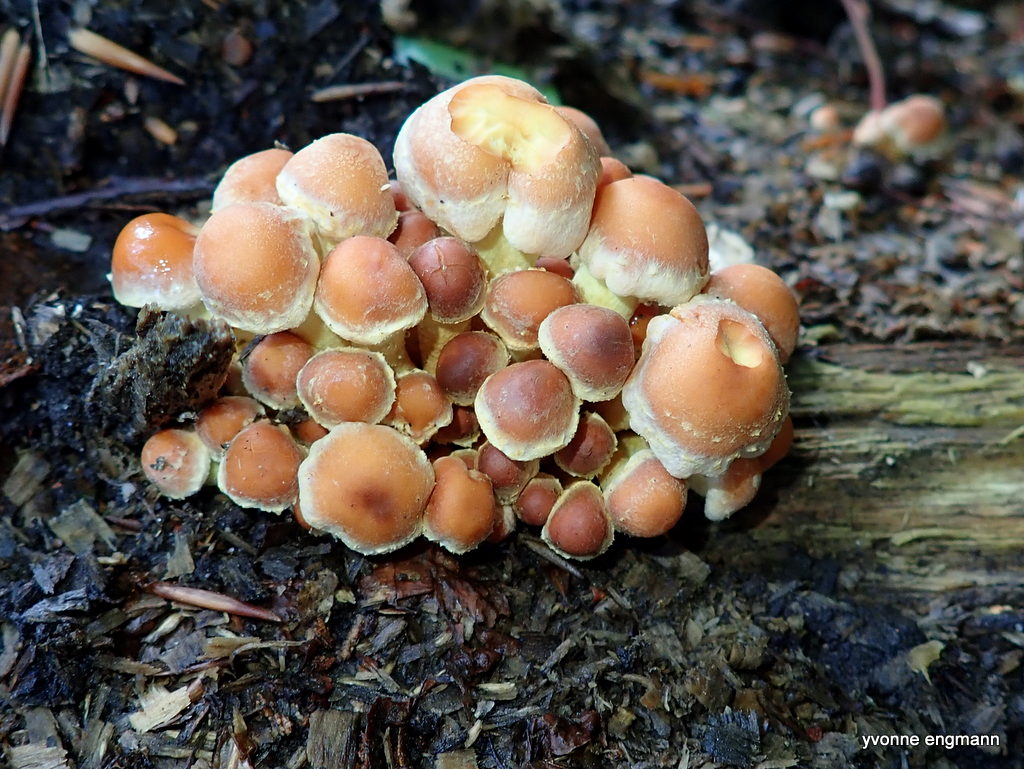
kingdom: Fungi
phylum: Basidiomycota
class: Agaricomycetes
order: Agaricales
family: Strophariaceae
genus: Hypholoma
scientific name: Hypholoma fasciculare
